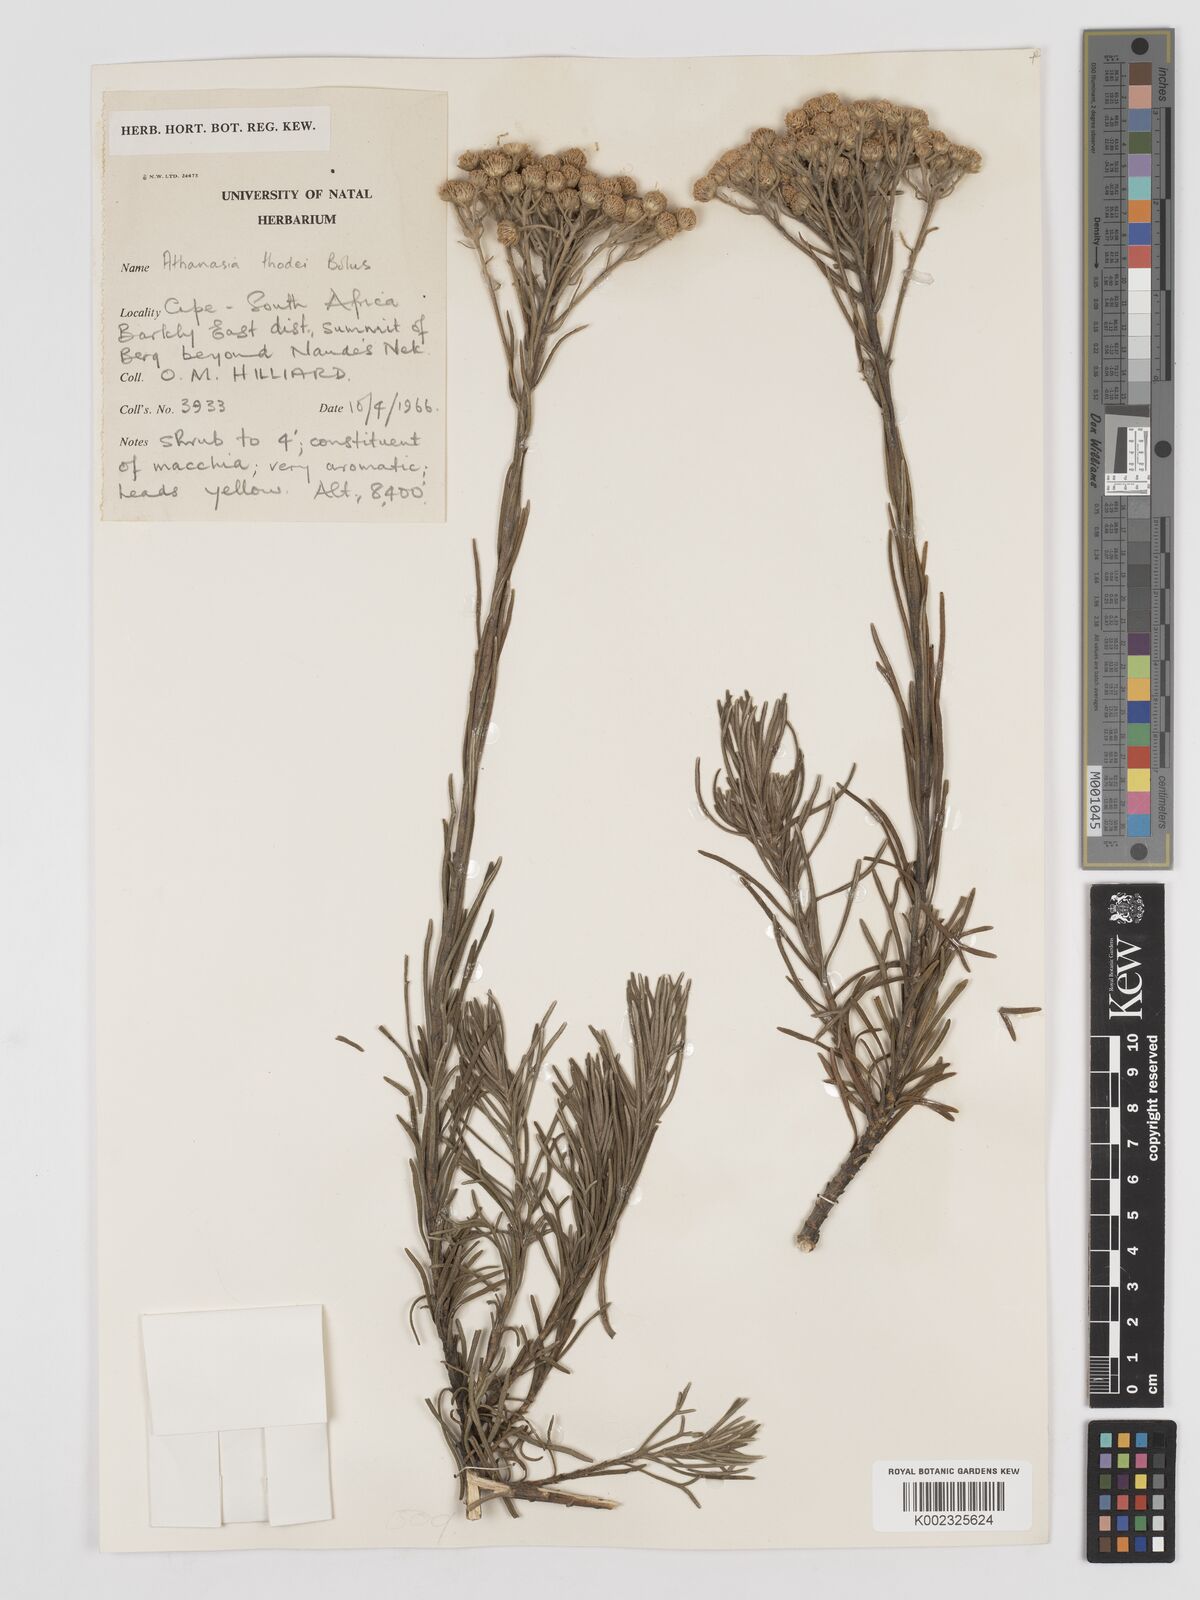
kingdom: Plantae
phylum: Tracheophyta
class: Magnoliopsida
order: Asterales
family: Asteraceae
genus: Inulanthera
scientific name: Inulanthera thodei
